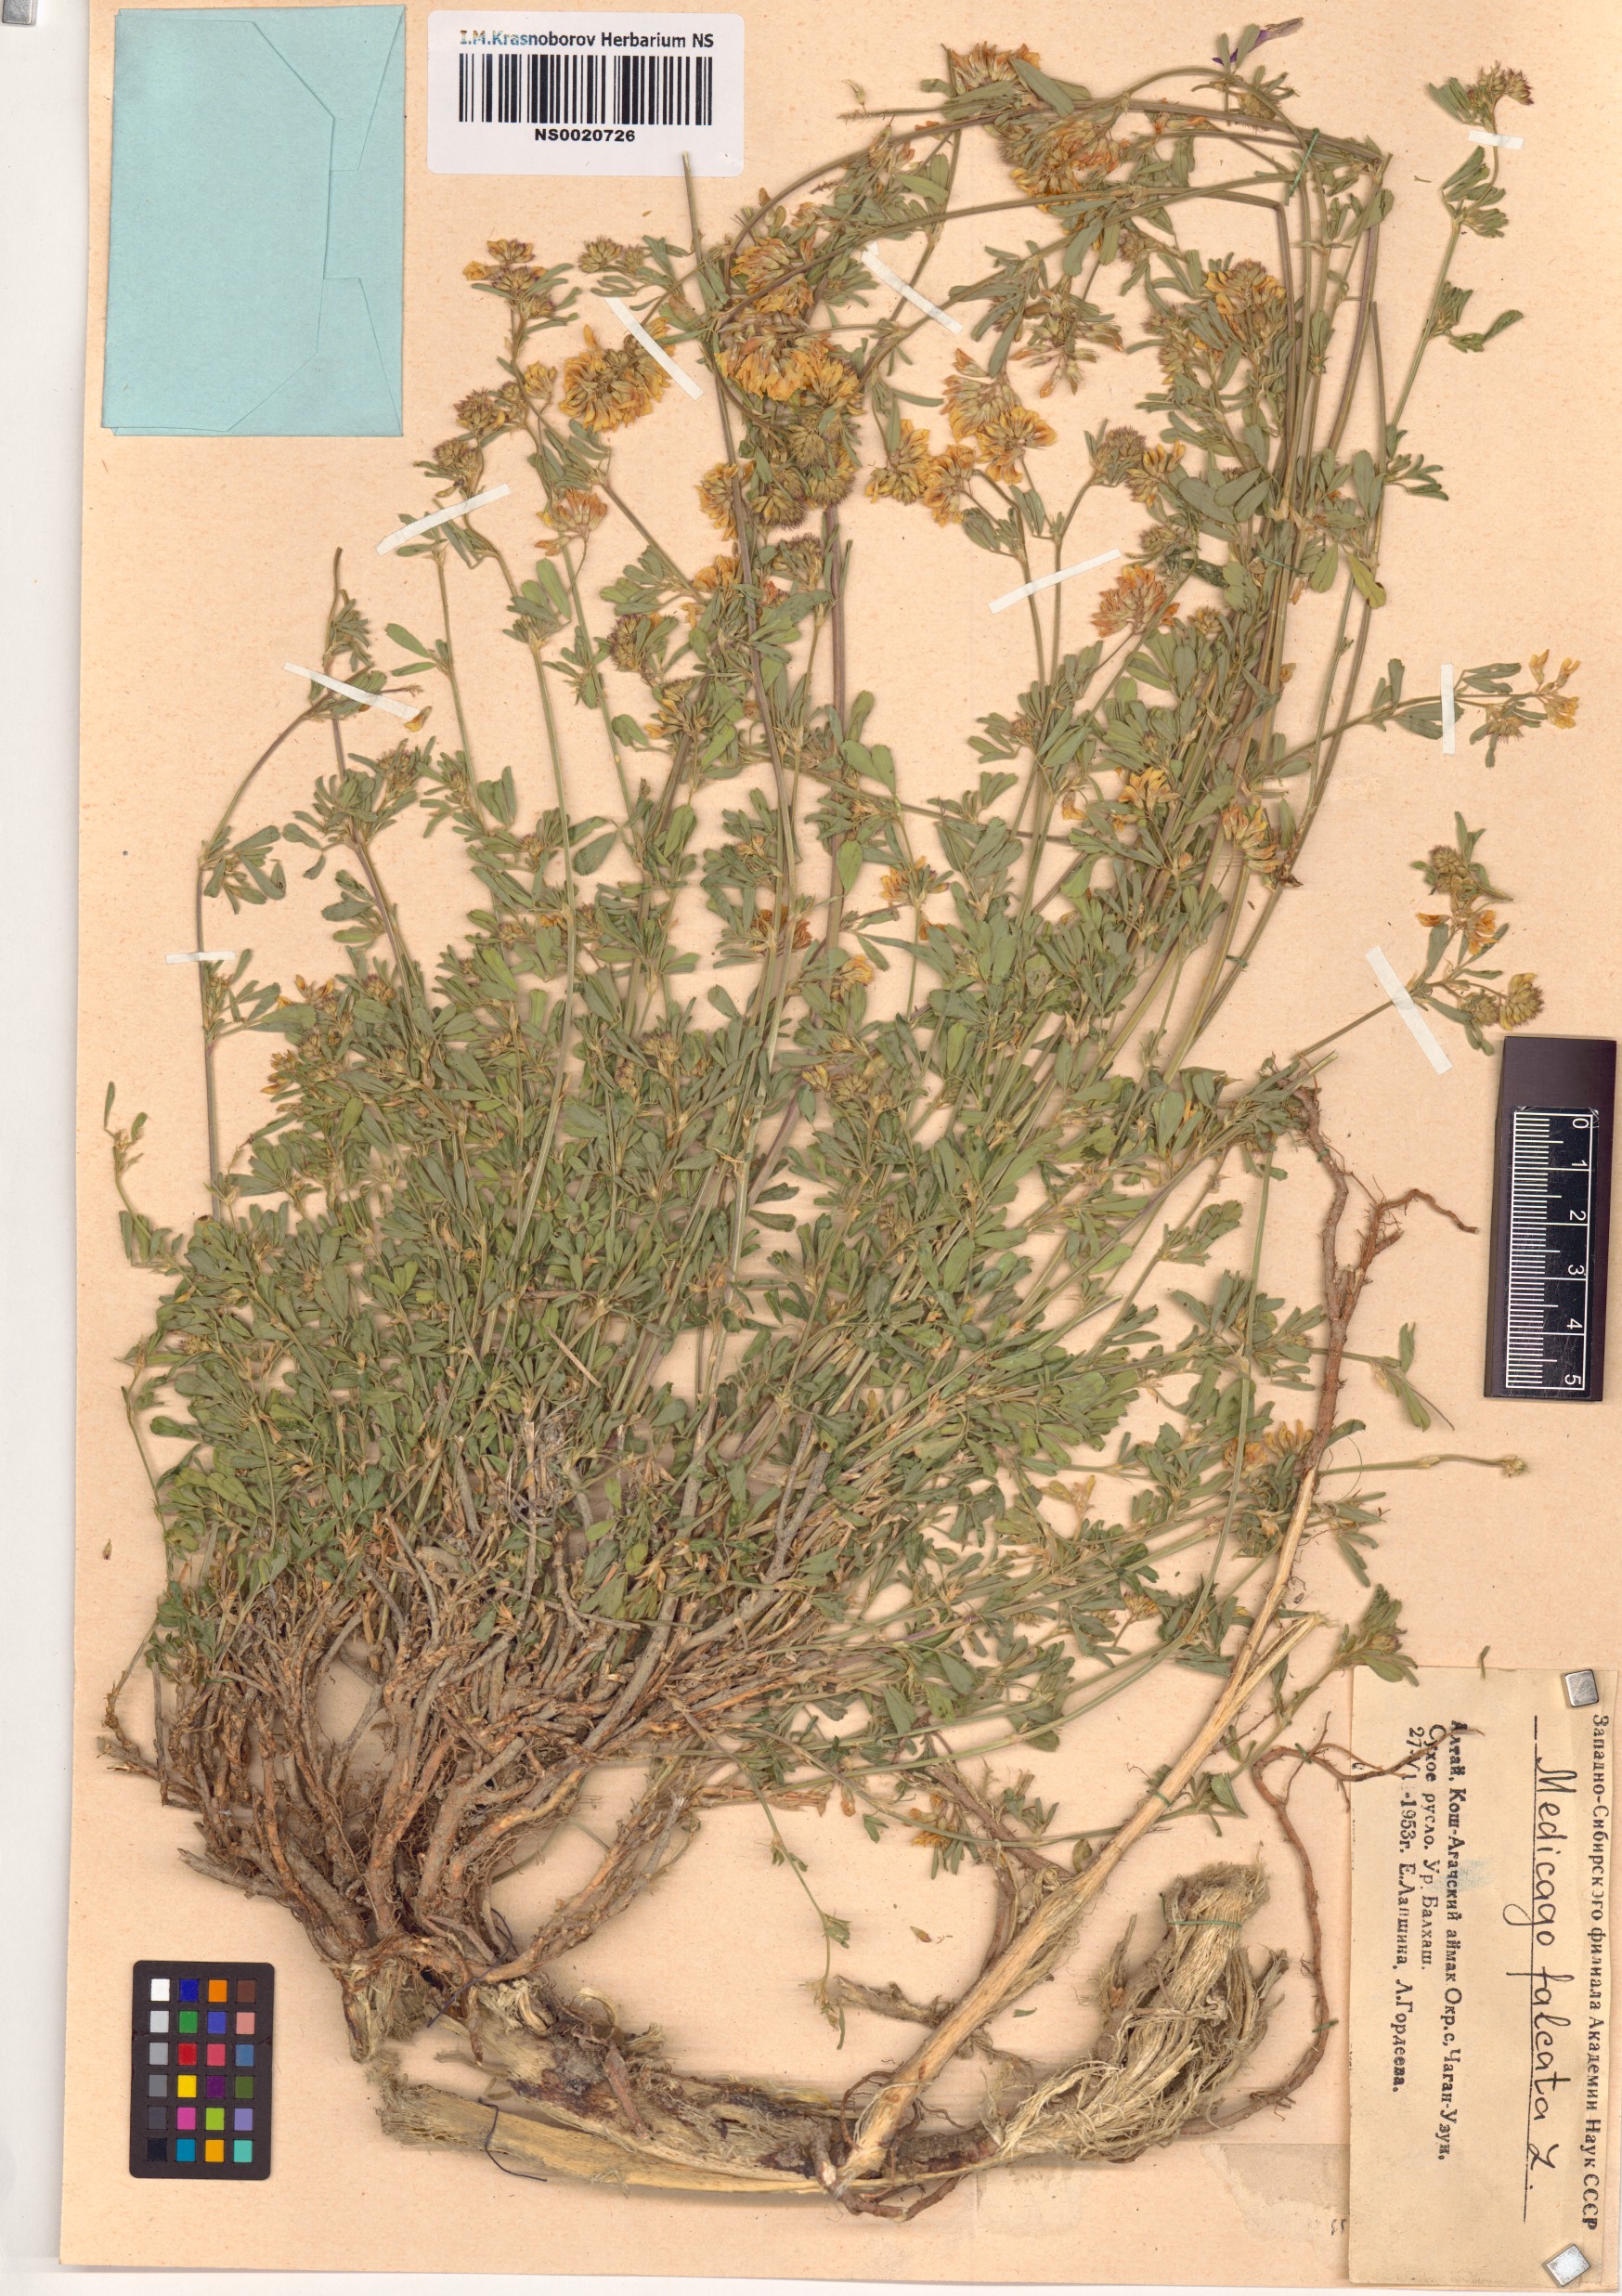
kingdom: Plantae
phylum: Tracheophyta
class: Magnoliopsida
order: Fabales
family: Fabaceae
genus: Medicago
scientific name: Medicago falcata
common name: Sickle medick
